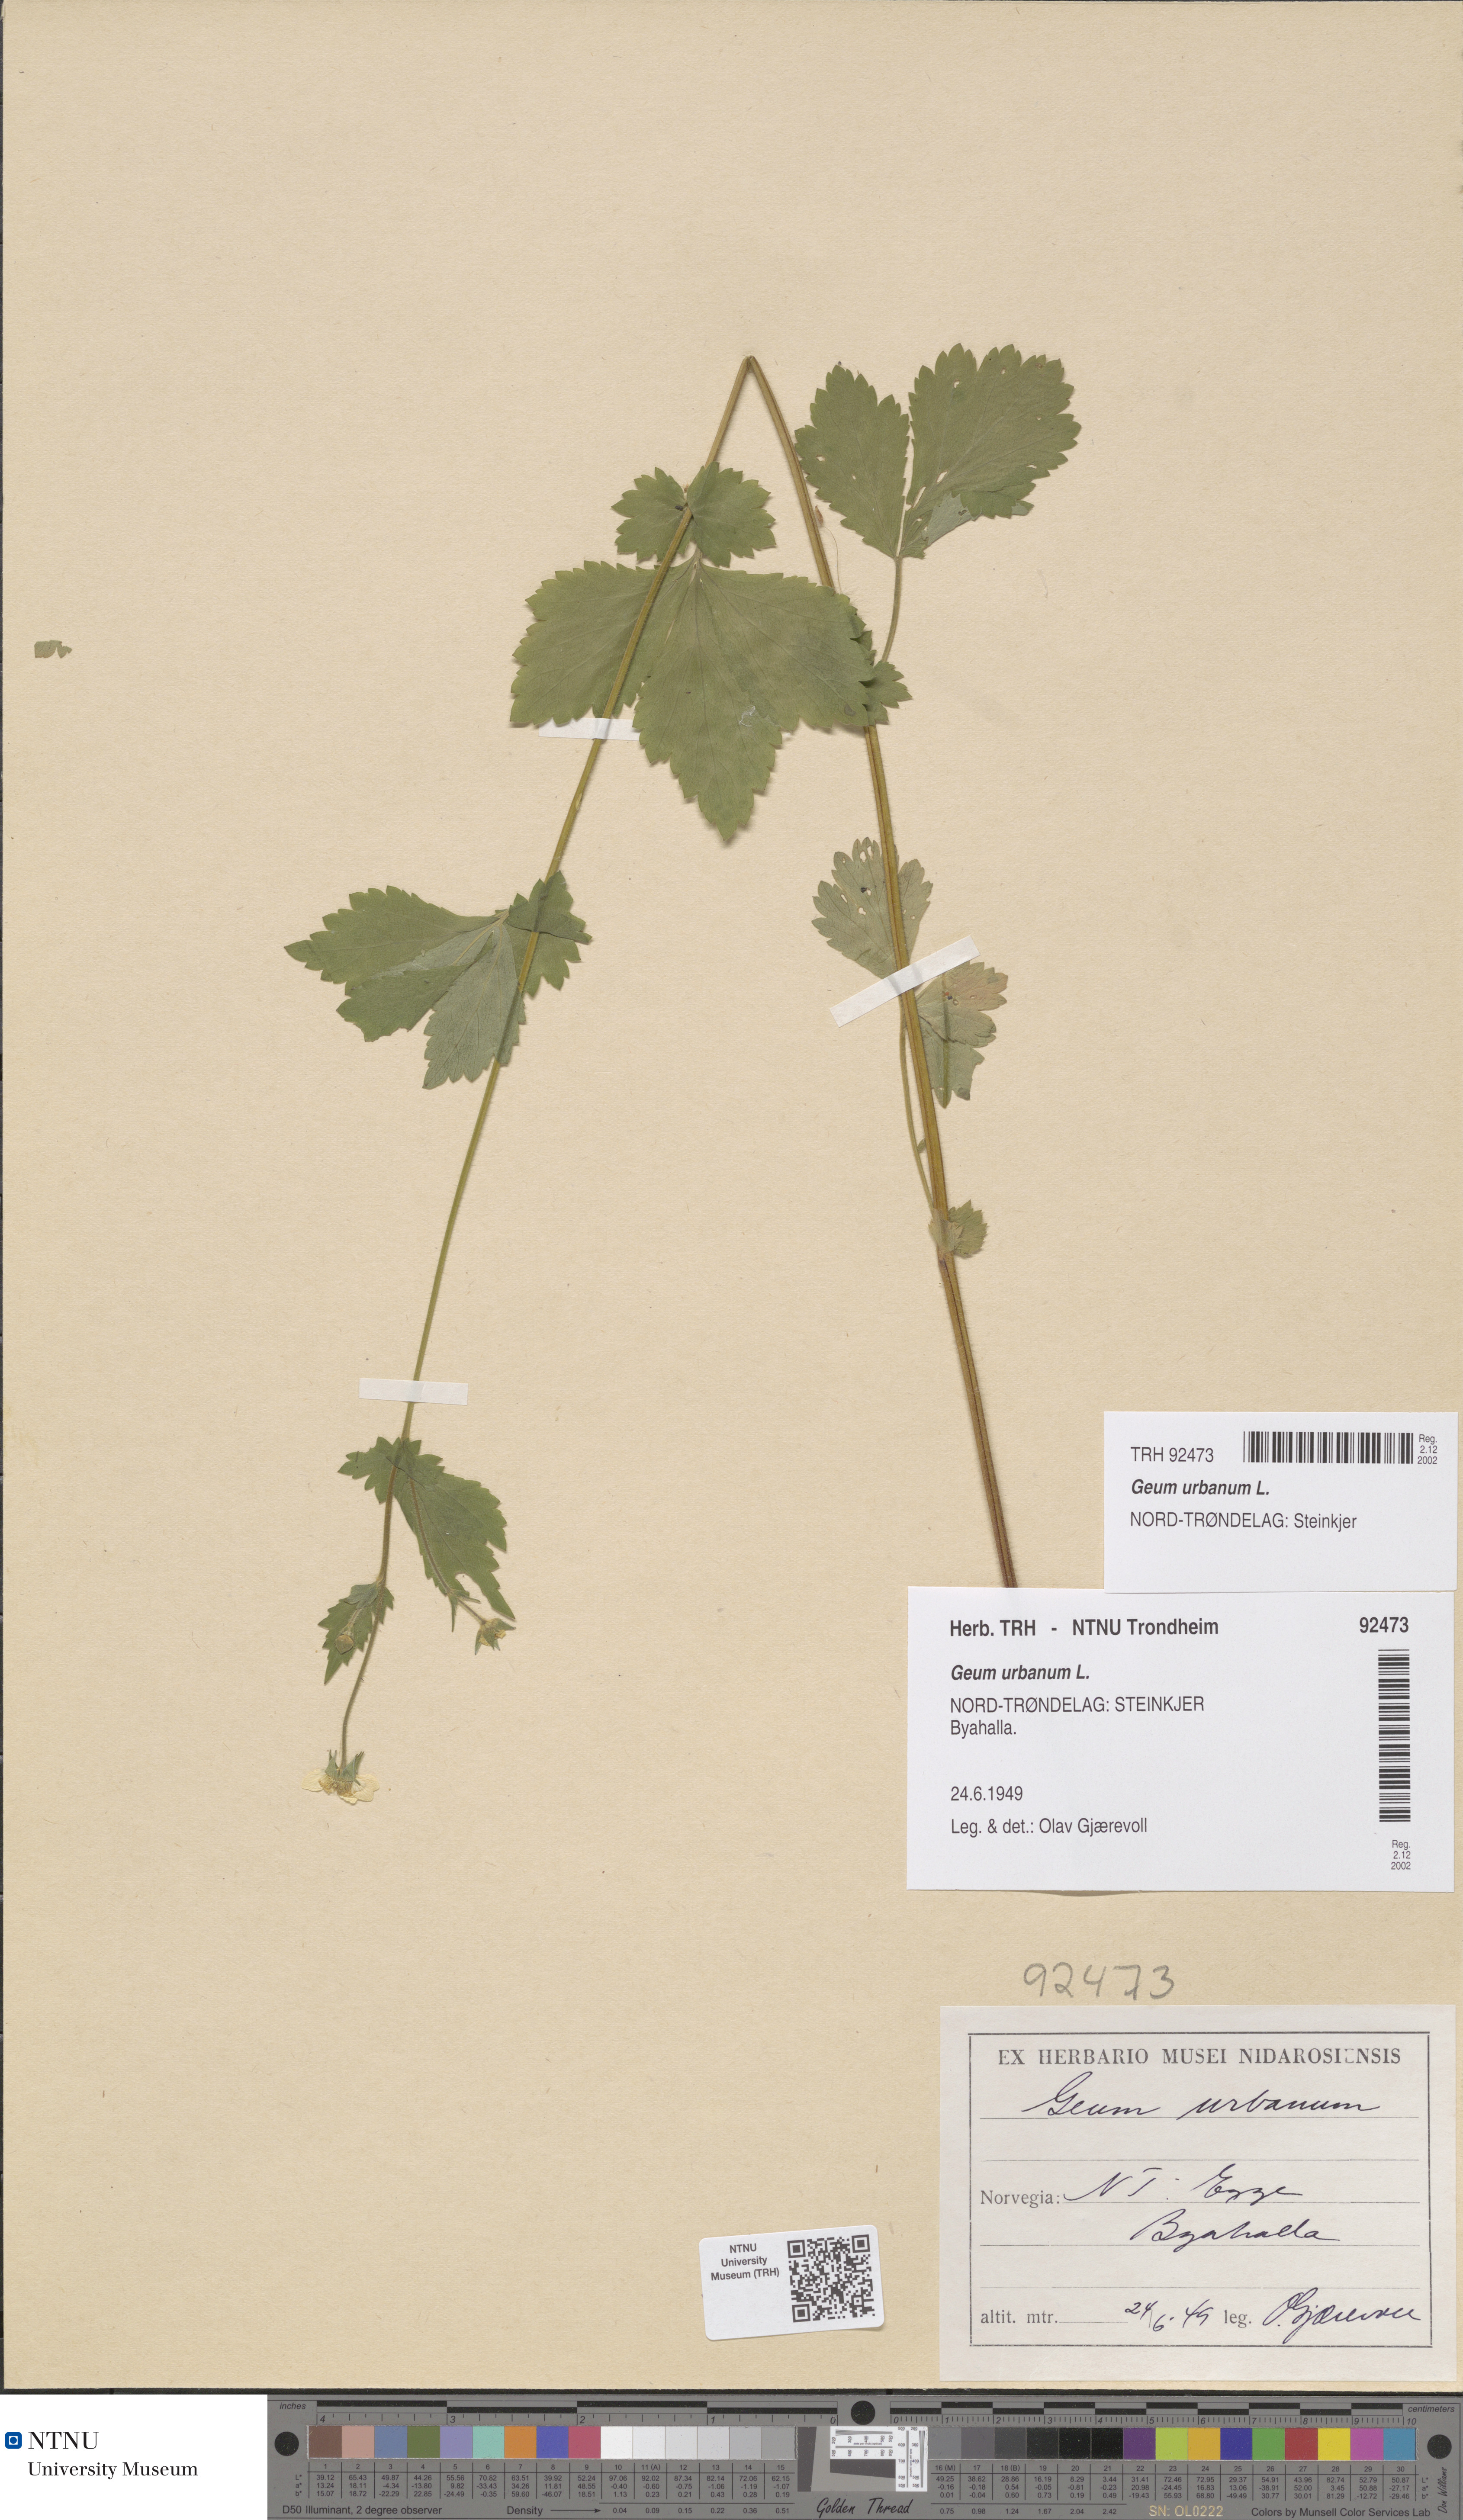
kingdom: Plantae
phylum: Tracheophyta
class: Magnoliopsida
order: Rosales
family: Rosaceae
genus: Geum
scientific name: Geum urbanum
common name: Wood avens
